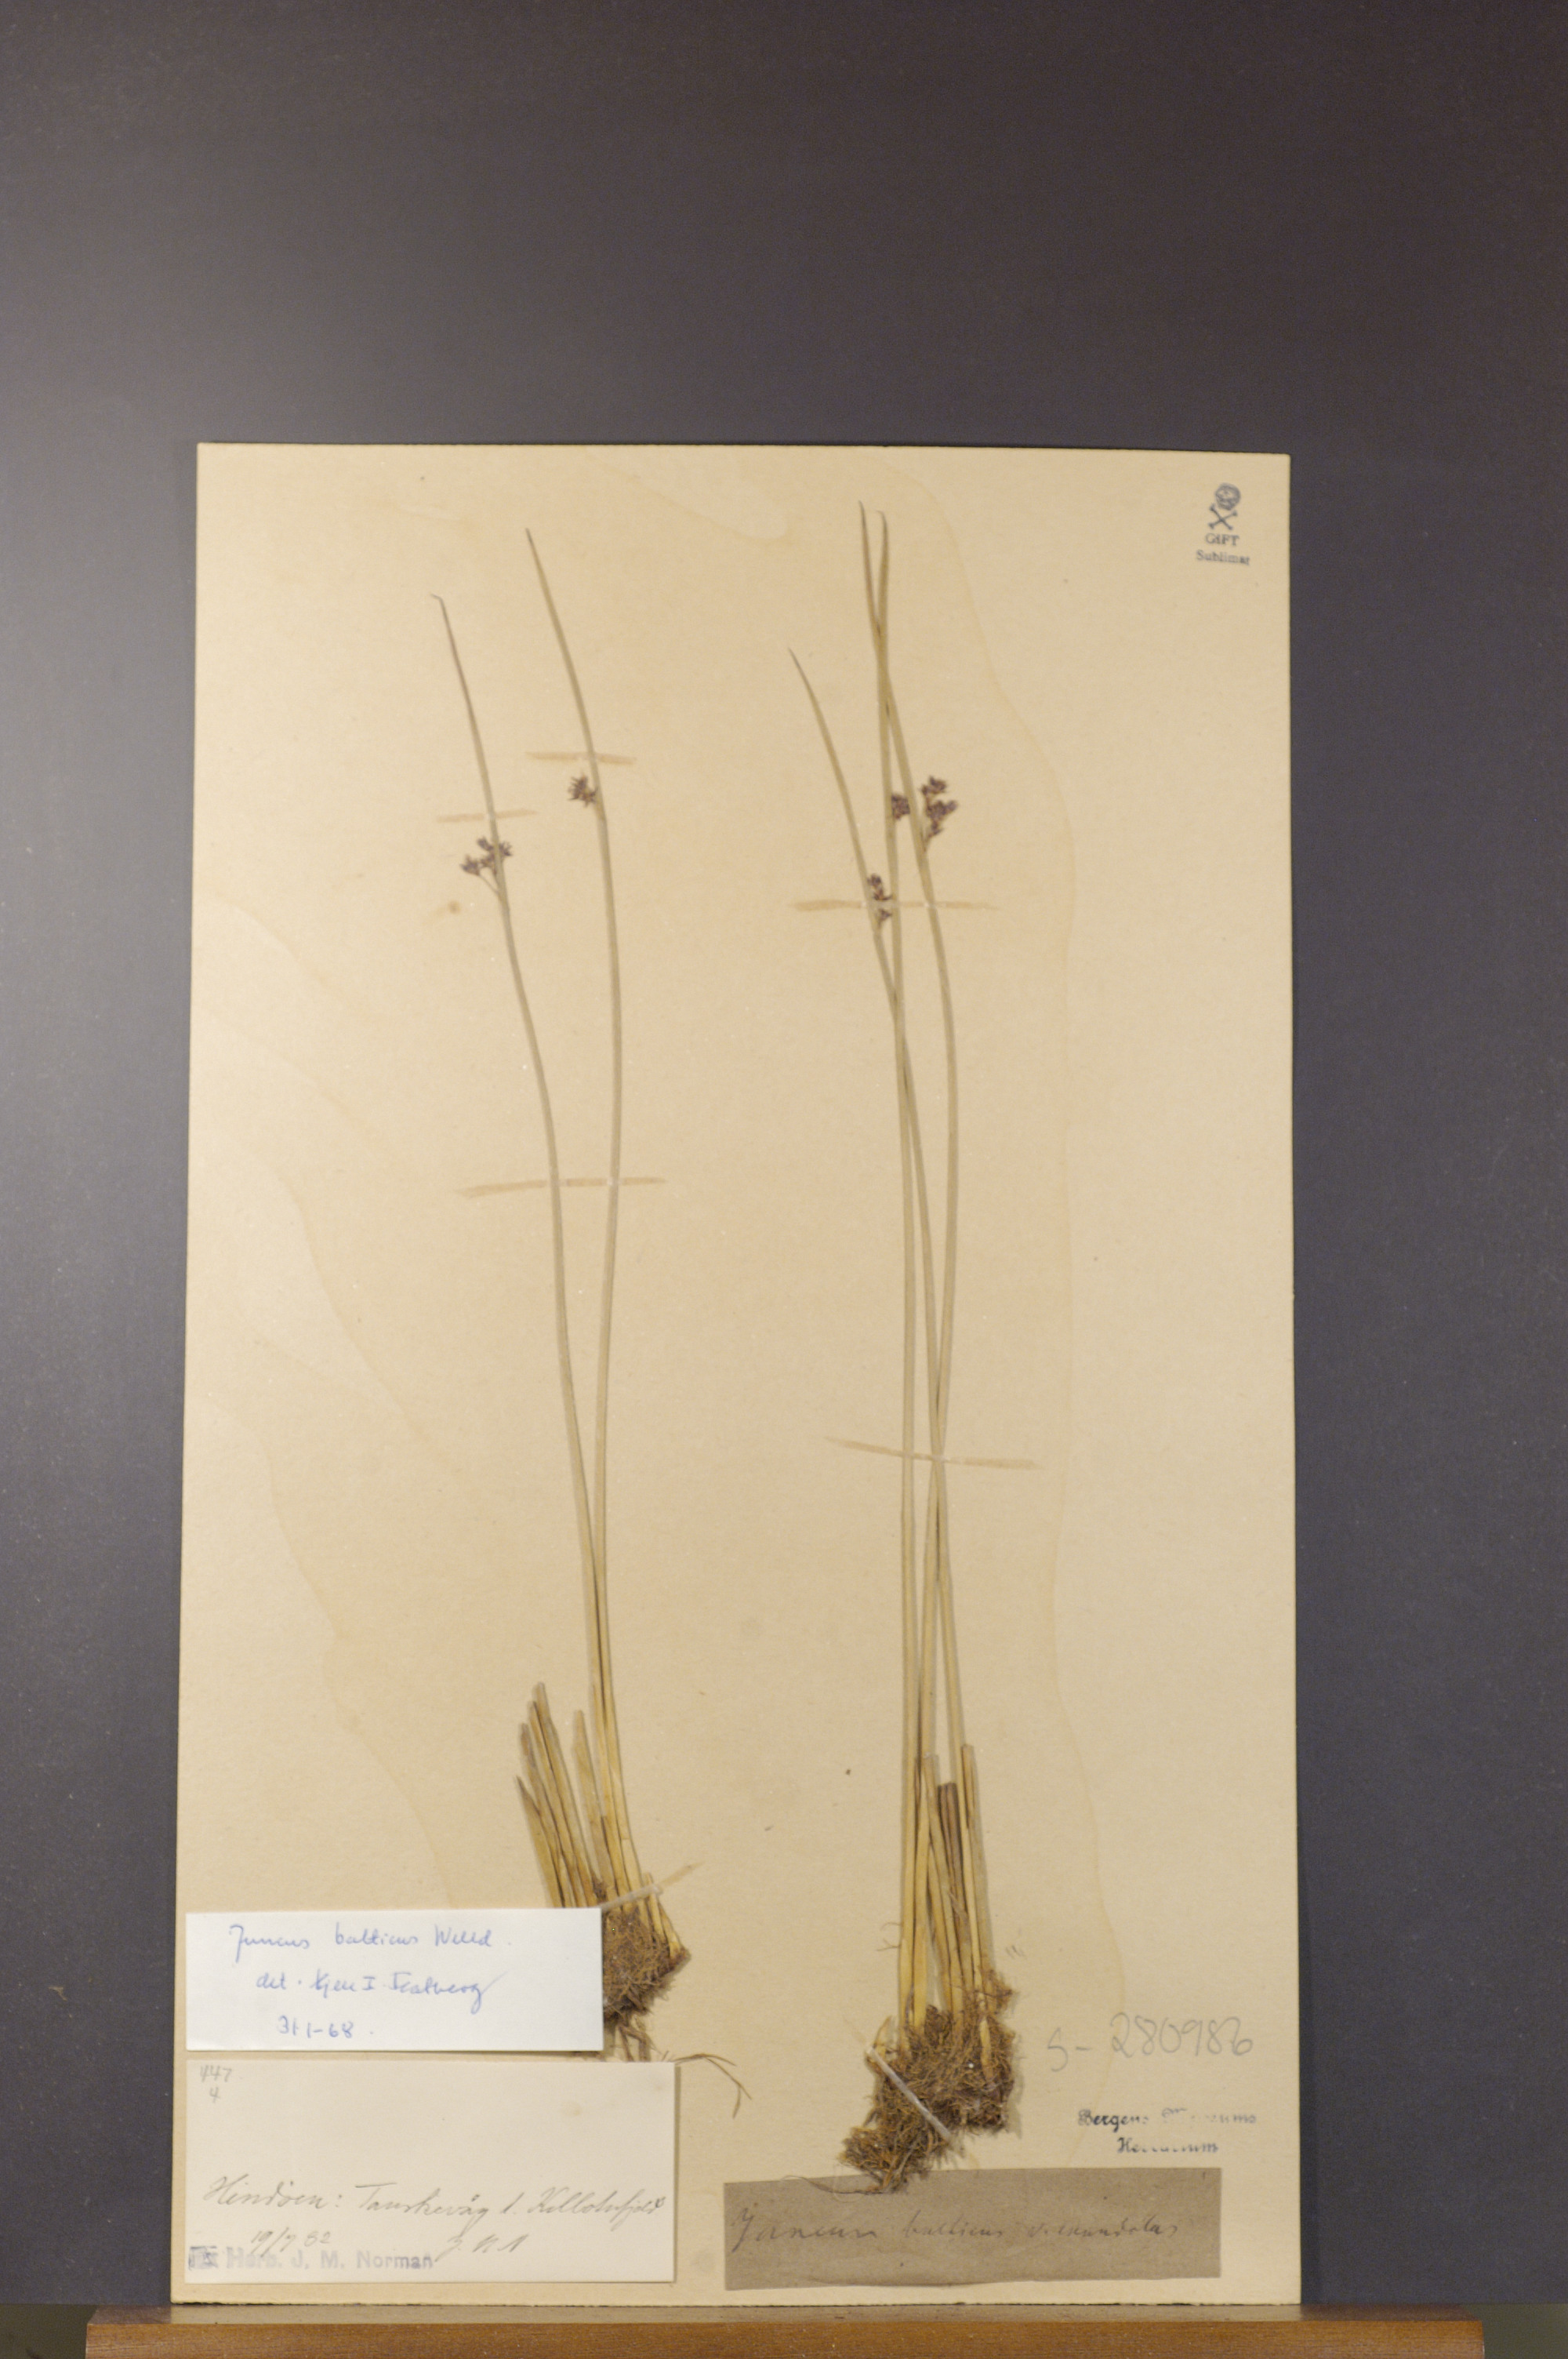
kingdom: Plantae
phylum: Tracheophyta
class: Liliopsida
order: Poales
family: Juncaceae
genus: Juncus
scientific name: Juncus balticus
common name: Baltic rush
